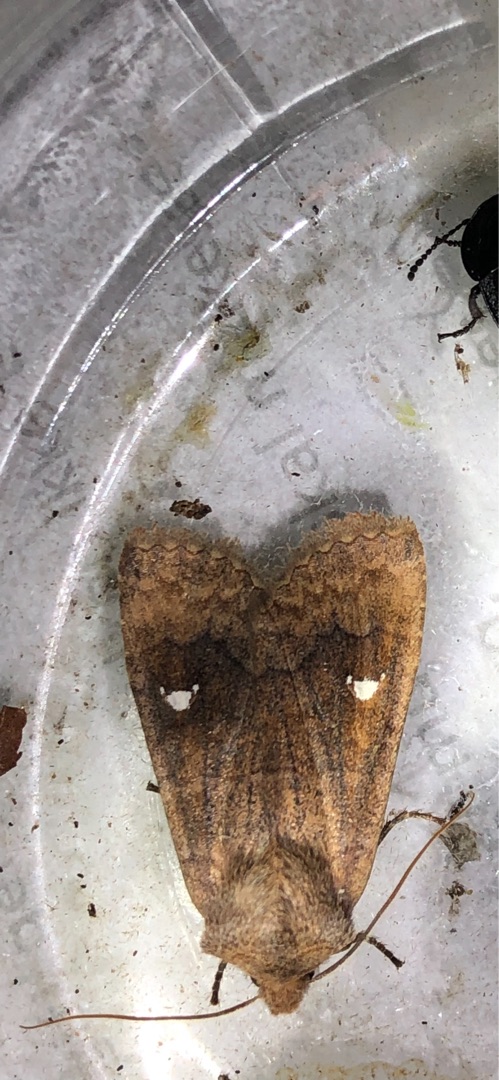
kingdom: Animalia
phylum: Arthropoda
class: Insecta
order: Lepidoptera
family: Noctuidae
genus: Eupsilia
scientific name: Eupsilia transversa
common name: Satellitugle
